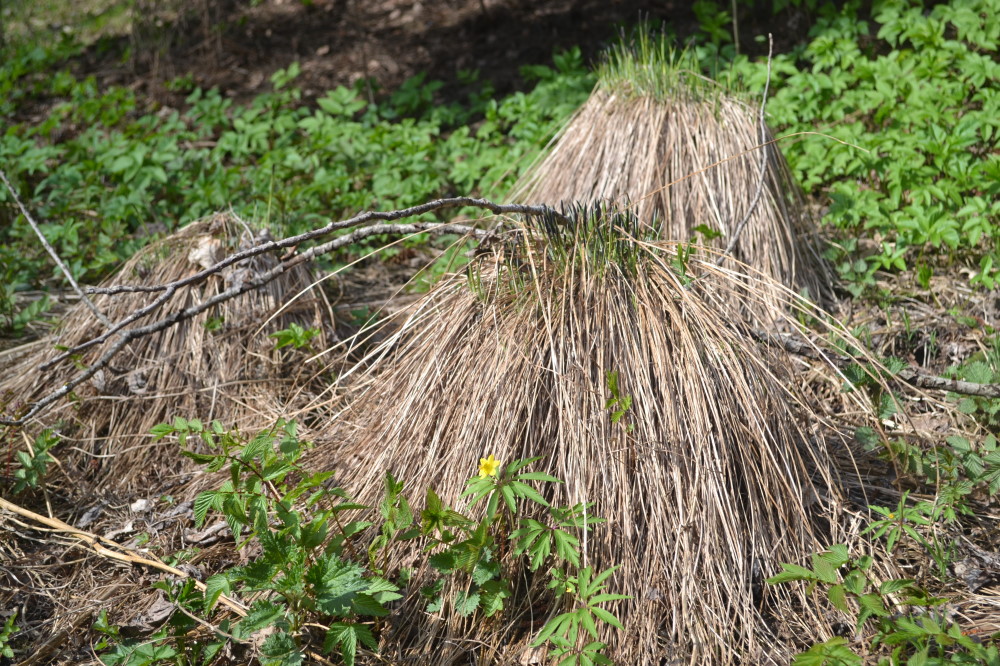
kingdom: Plantae
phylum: Tracheophyta
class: Magnoliopsida
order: Ranunculales
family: Ranunculaceae
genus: Anemone
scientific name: Anemone ranunculoides
